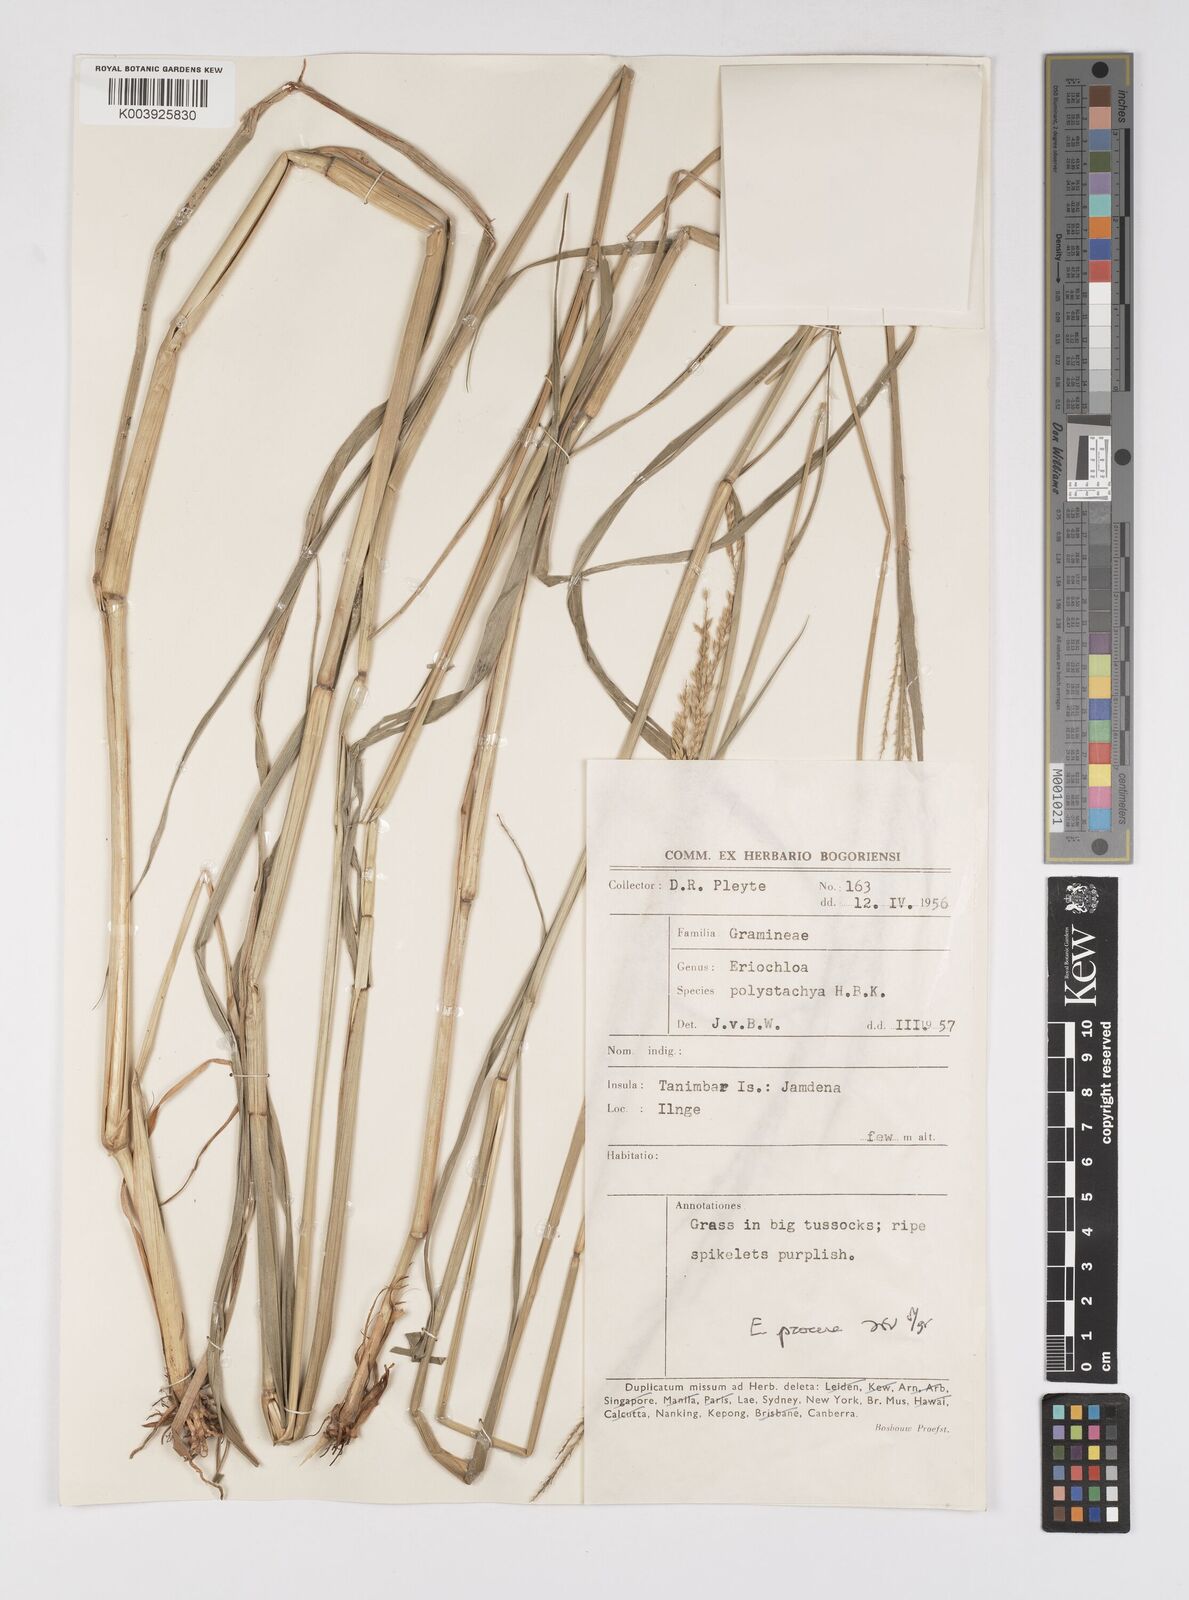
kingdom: Plantae
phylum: Tracheophyta
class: Liliopsida
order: Poales
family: Poaceae
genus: Eriochloa
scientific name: Eriochloa procera
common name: Spring grass
